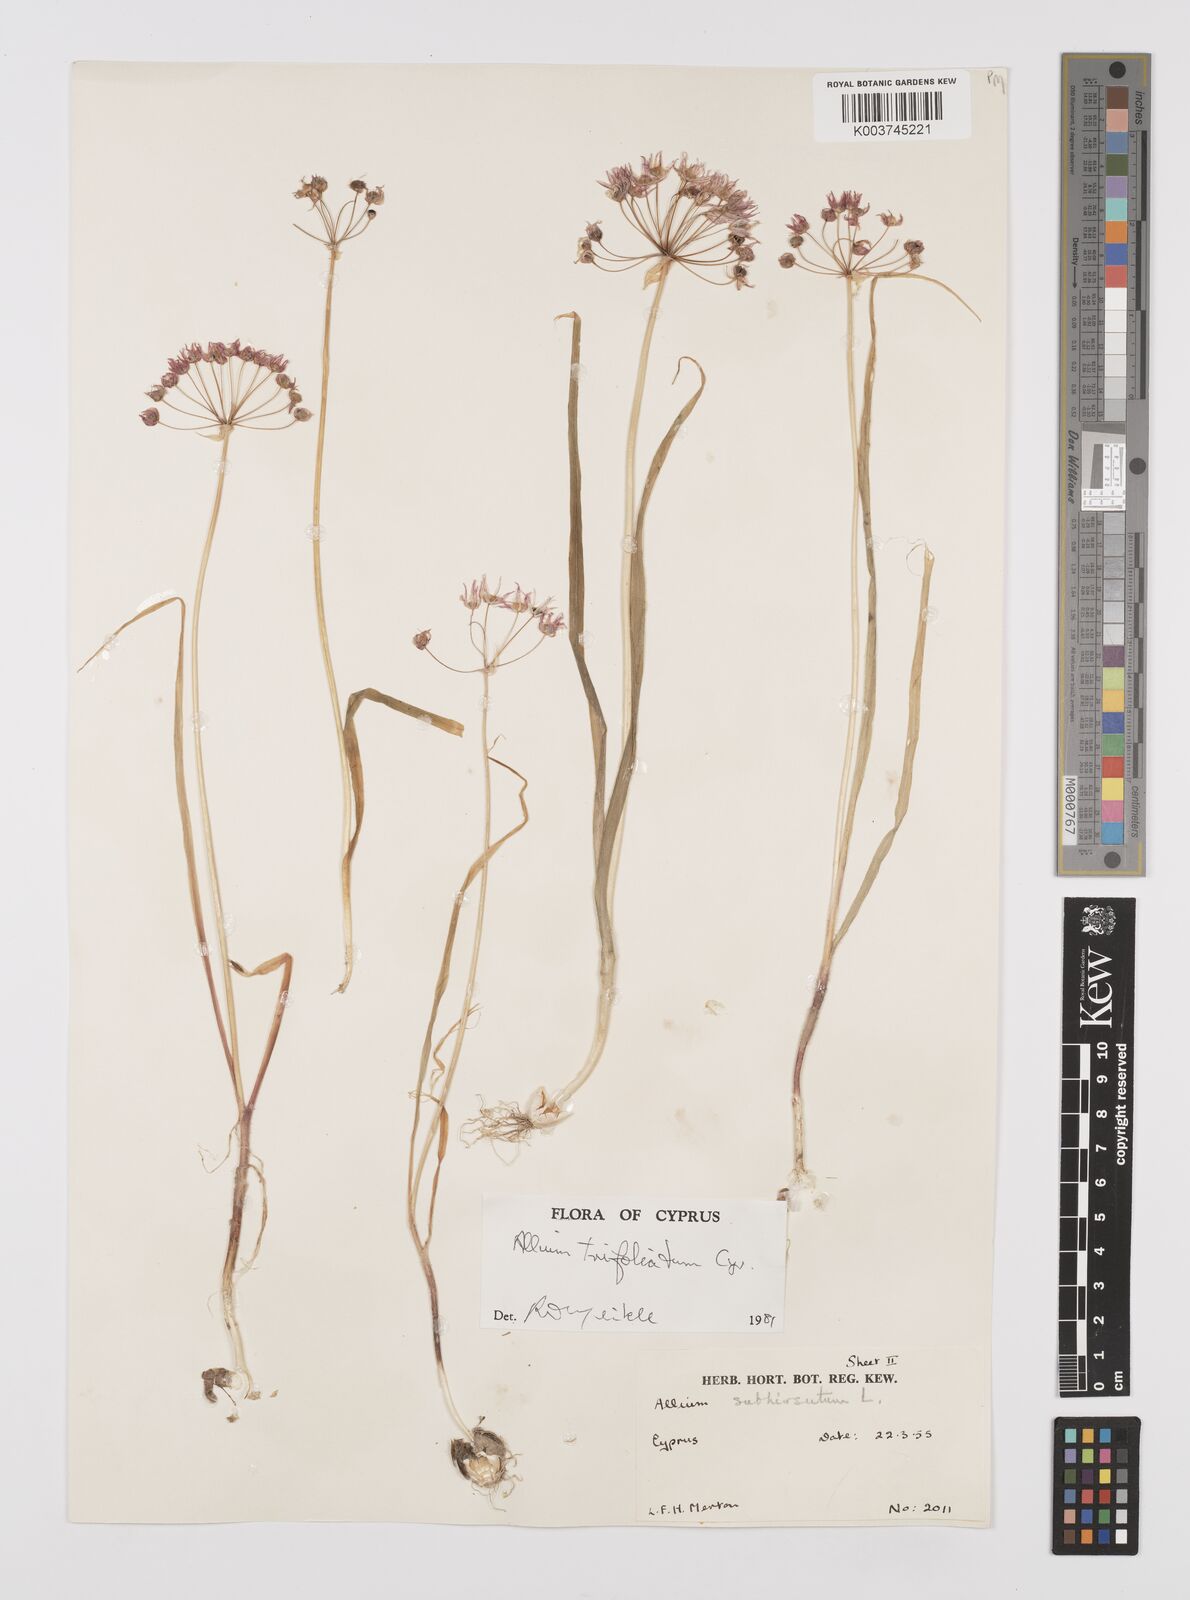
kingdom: Plantae
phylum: Tracheophyta
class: Liliopsida
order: Asparagales
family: Amaryllidaceae
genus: Allium
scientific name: Allium trifoliatum
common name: Pink garlic
